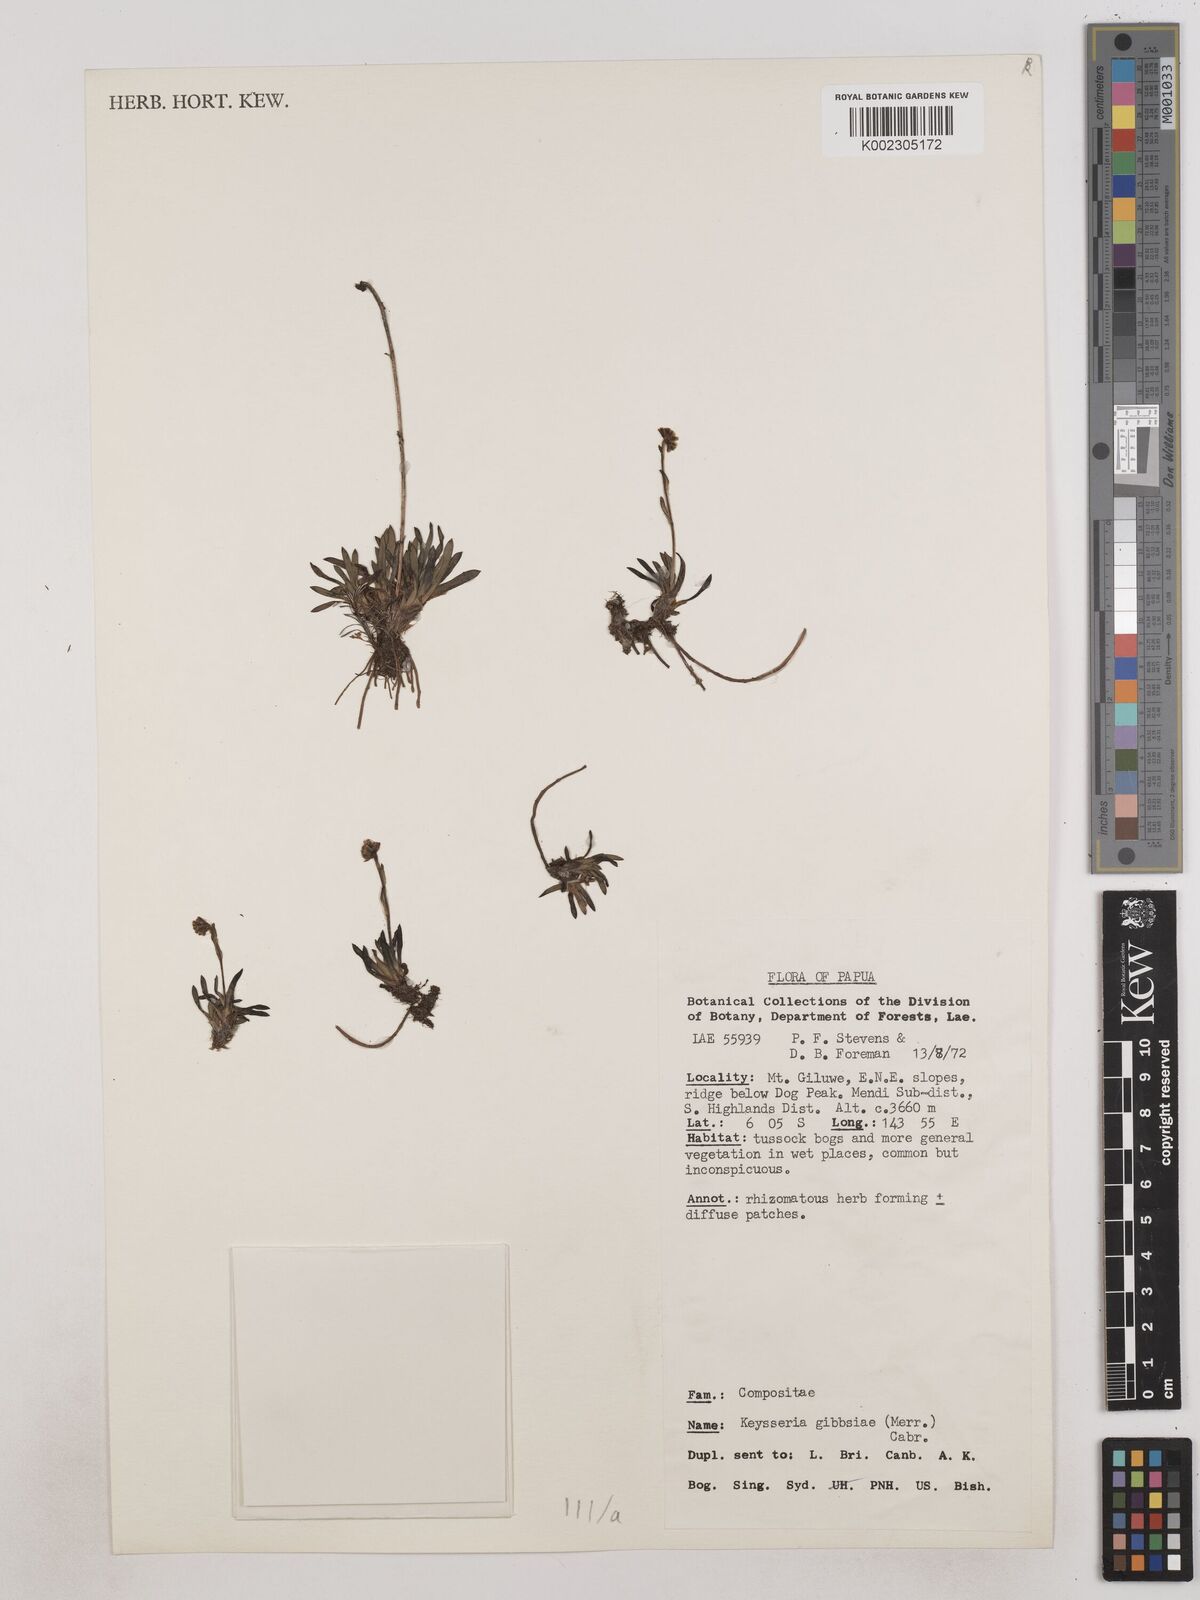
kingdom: Plantae
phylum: Tracheophyta
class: Magnoliopsida
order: Asterales
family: Asteraceae
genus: Keysseria
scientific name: Keysseria gibbsiae
